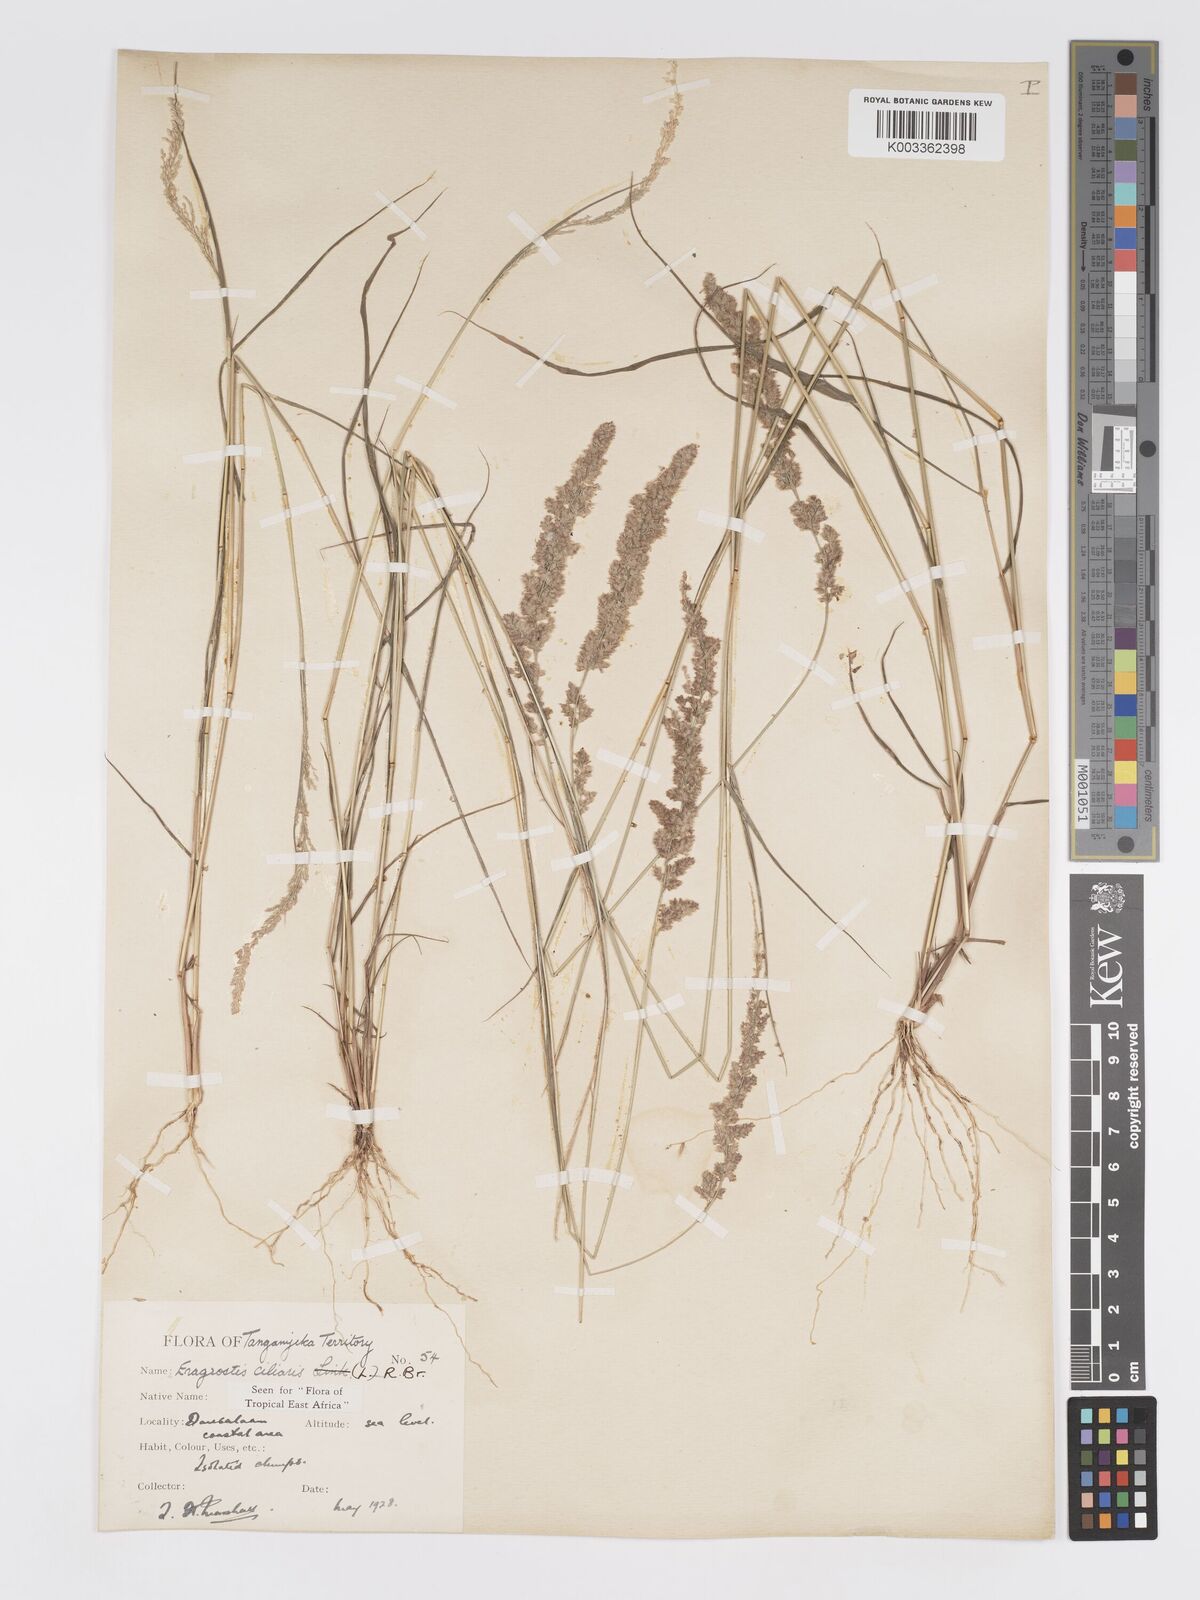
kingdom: Plantae
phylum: Tracheophyta
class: Liliopsida
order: Poales
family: Poaceae
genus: Eragrostis
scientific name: Eragrostis ciliaris
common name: Gophertail lovegrass
